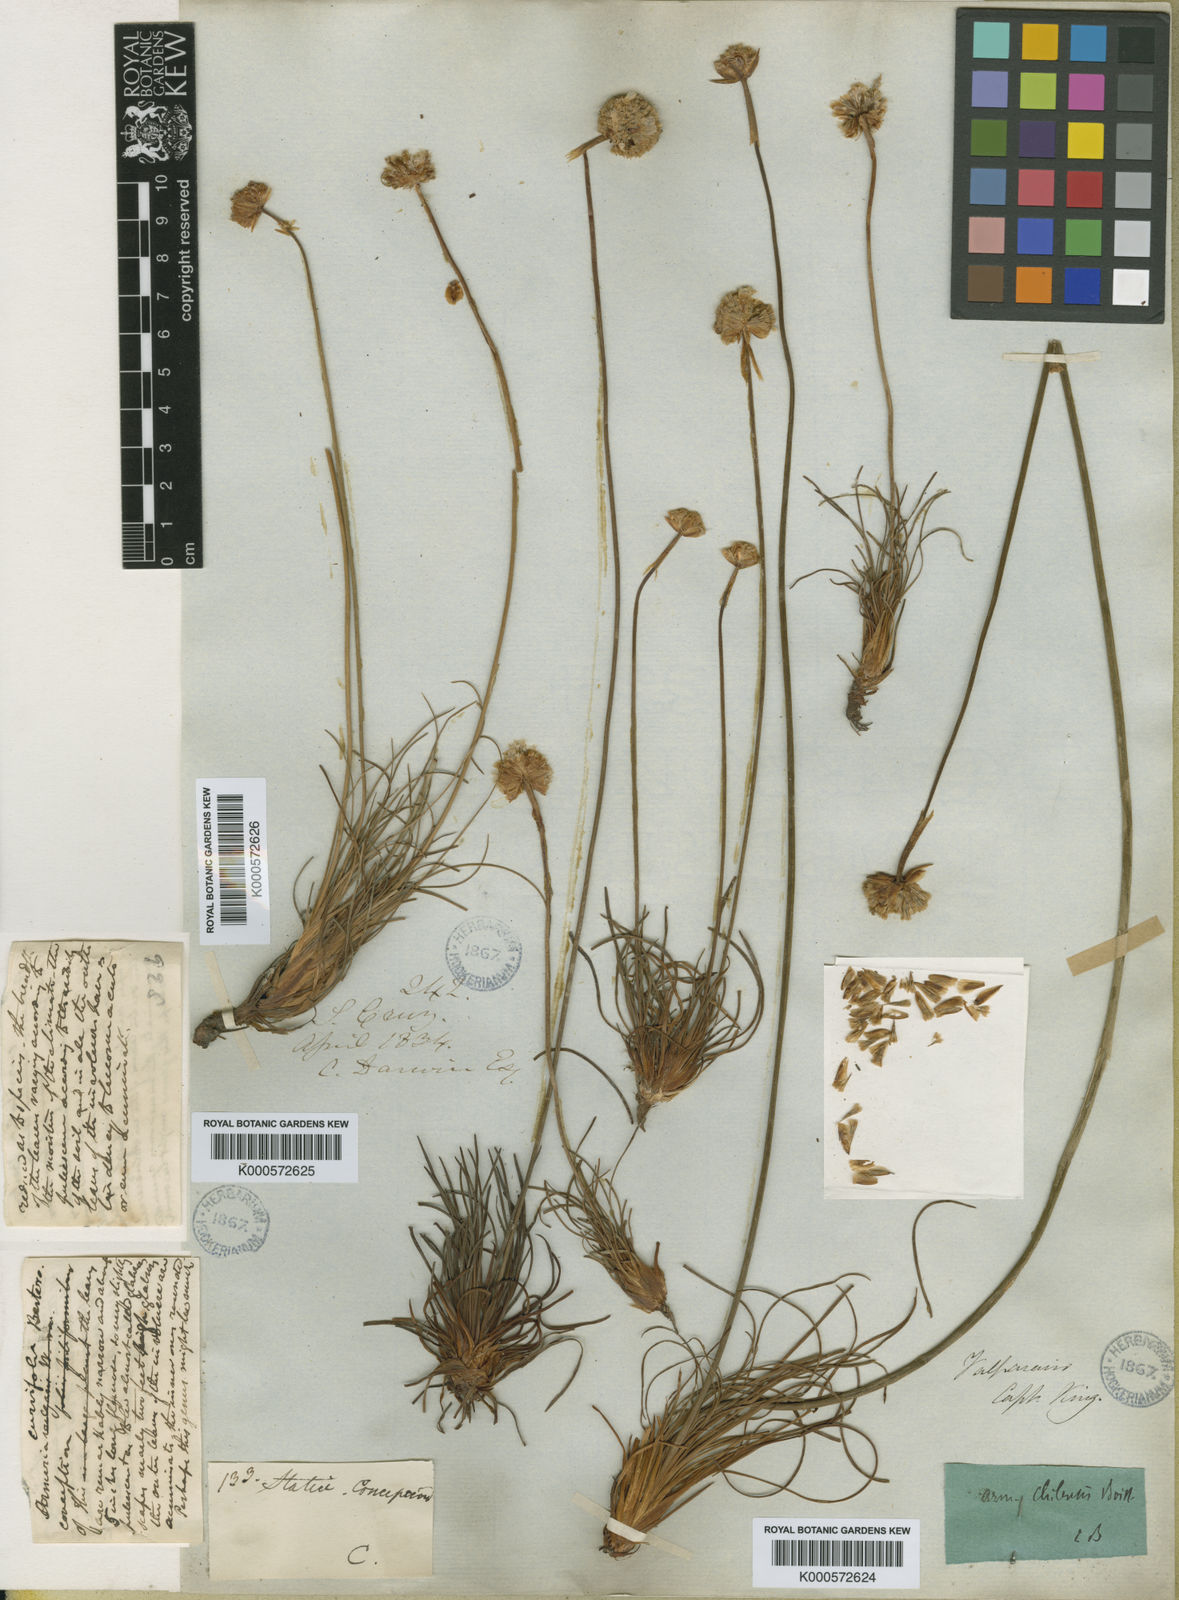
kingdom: Plantae
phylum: Tracheophyta
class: Magnoliopsida
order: Caryophyllales
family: Plumbaginaceae
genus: Armeria
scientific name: Armeria curvifolia
